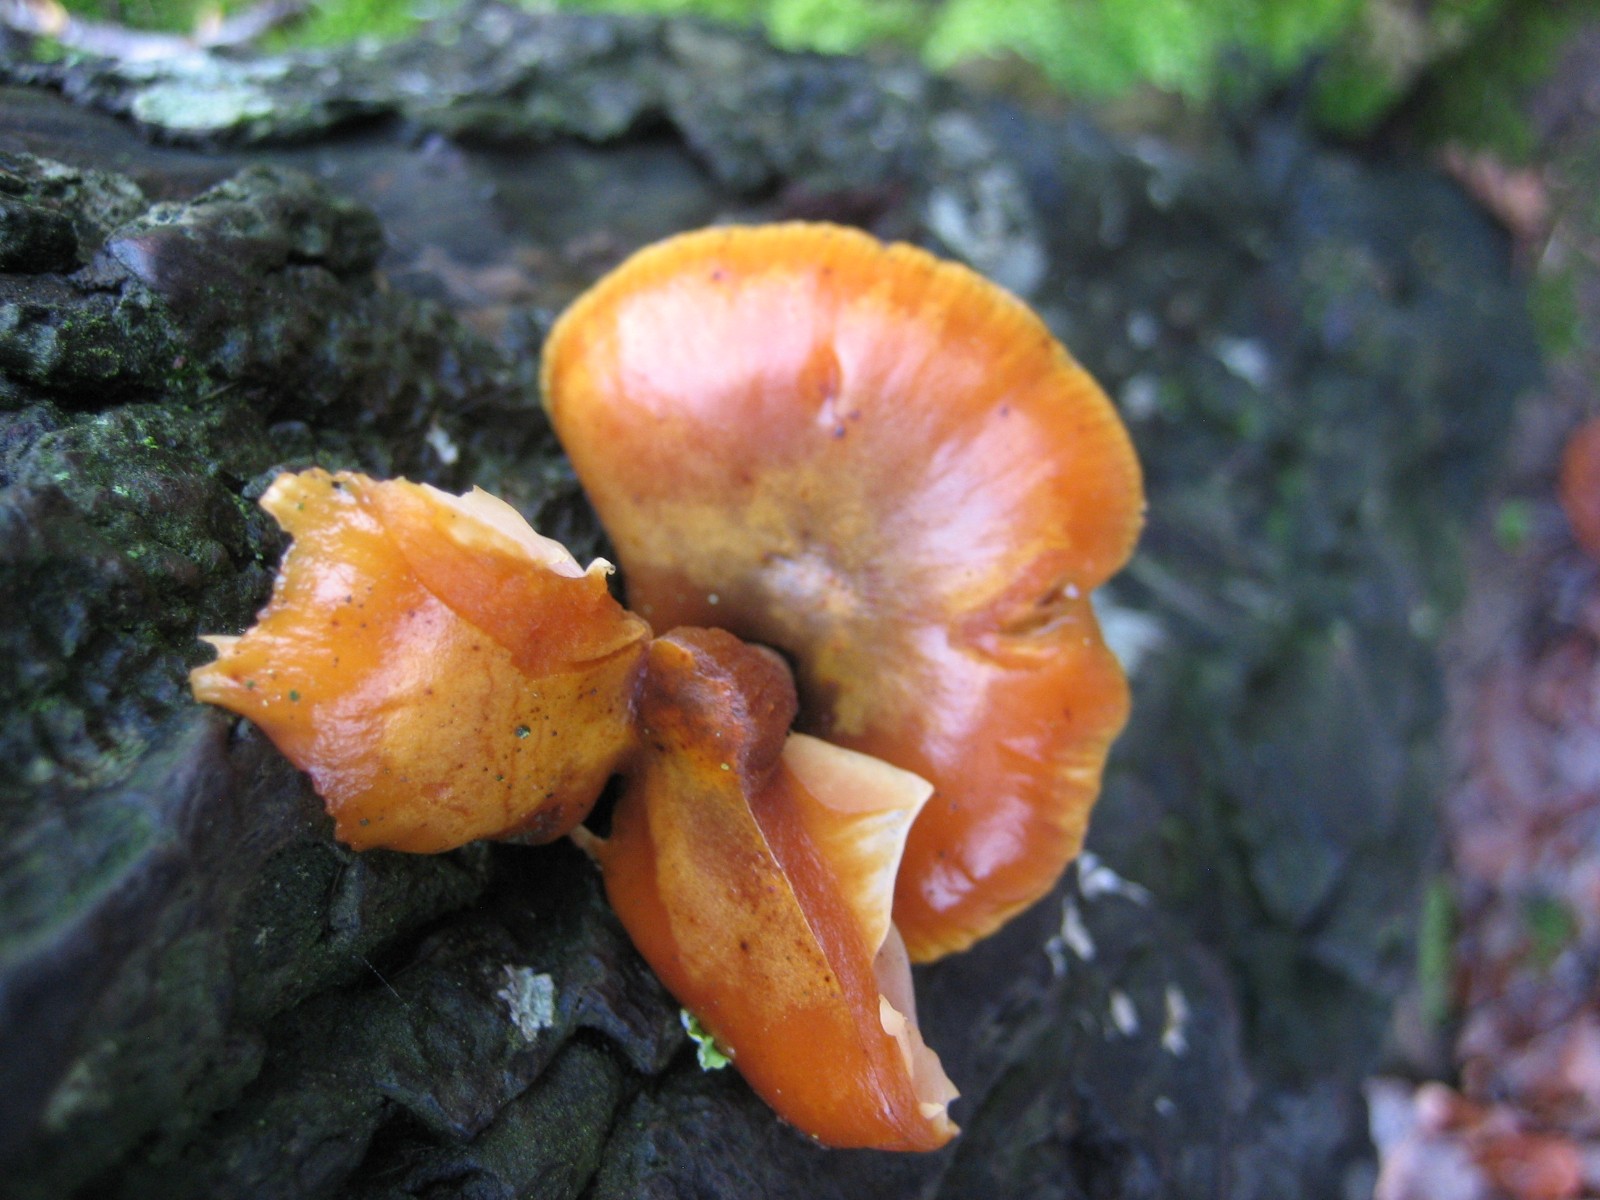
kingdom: Fungi
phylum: Basidiomycota
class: Agaricomycetes
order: Agaricales
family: Physalacriaceae
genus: Flammulina
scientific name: Flammulina velutipes
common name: gul fløjlsfod
